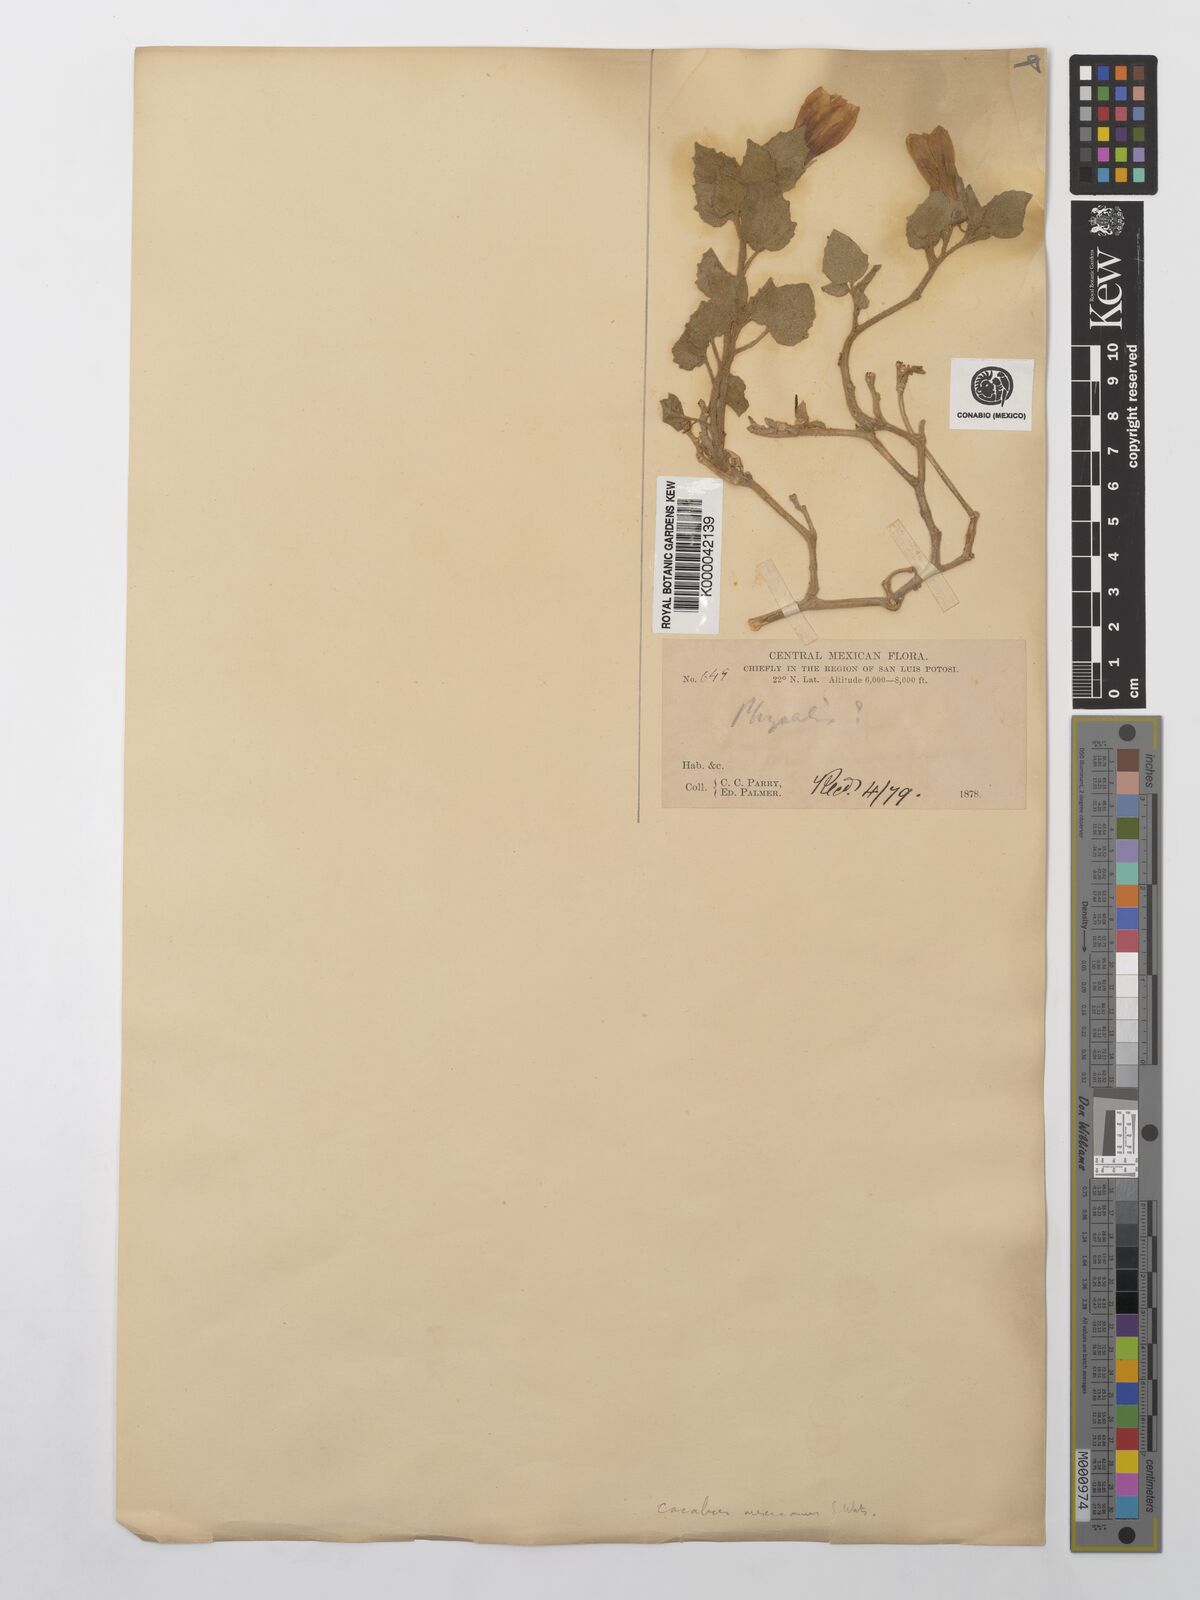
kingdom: Plantae
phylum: Tracheophyta
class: Magnoliopsida
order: Solanales
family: Solanaceae
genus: Physalis
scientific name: Physalis glutinosa
